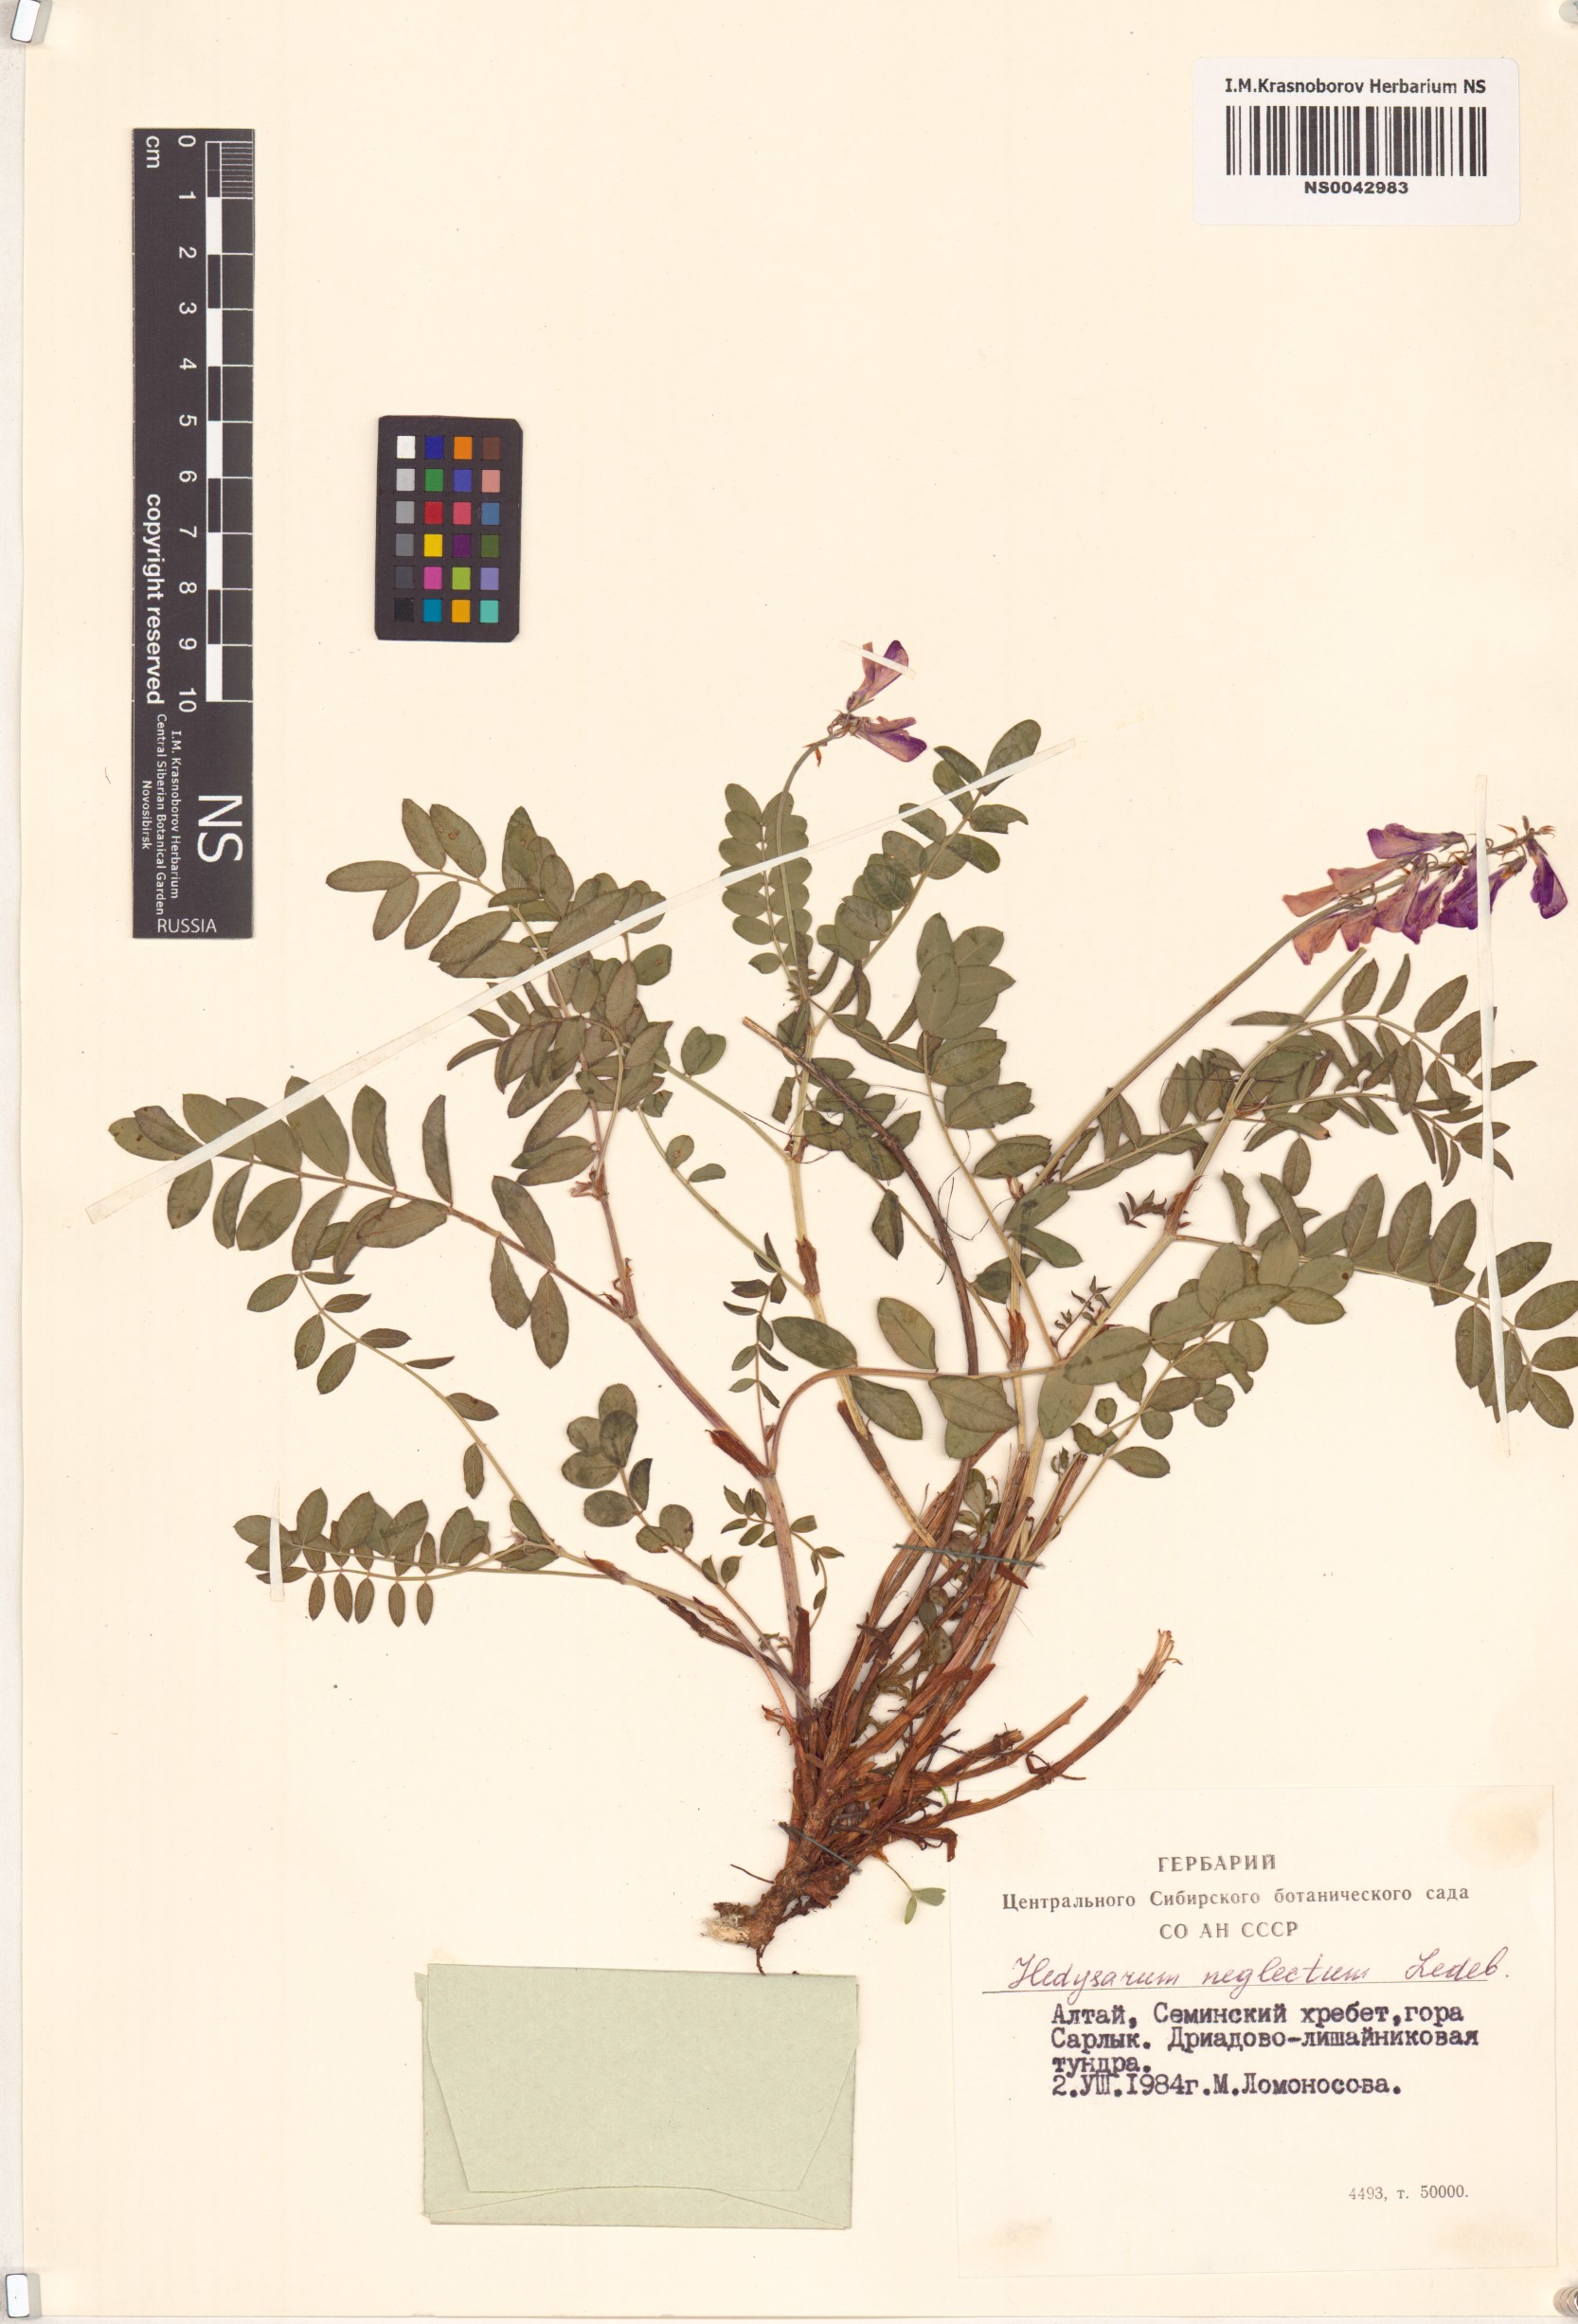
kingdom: Plantae
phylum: Tracheophyta
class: Magnoliopsida
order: Fabales
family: Fabaceae
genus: Hedysarum
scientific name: Hedysarum neglectum
